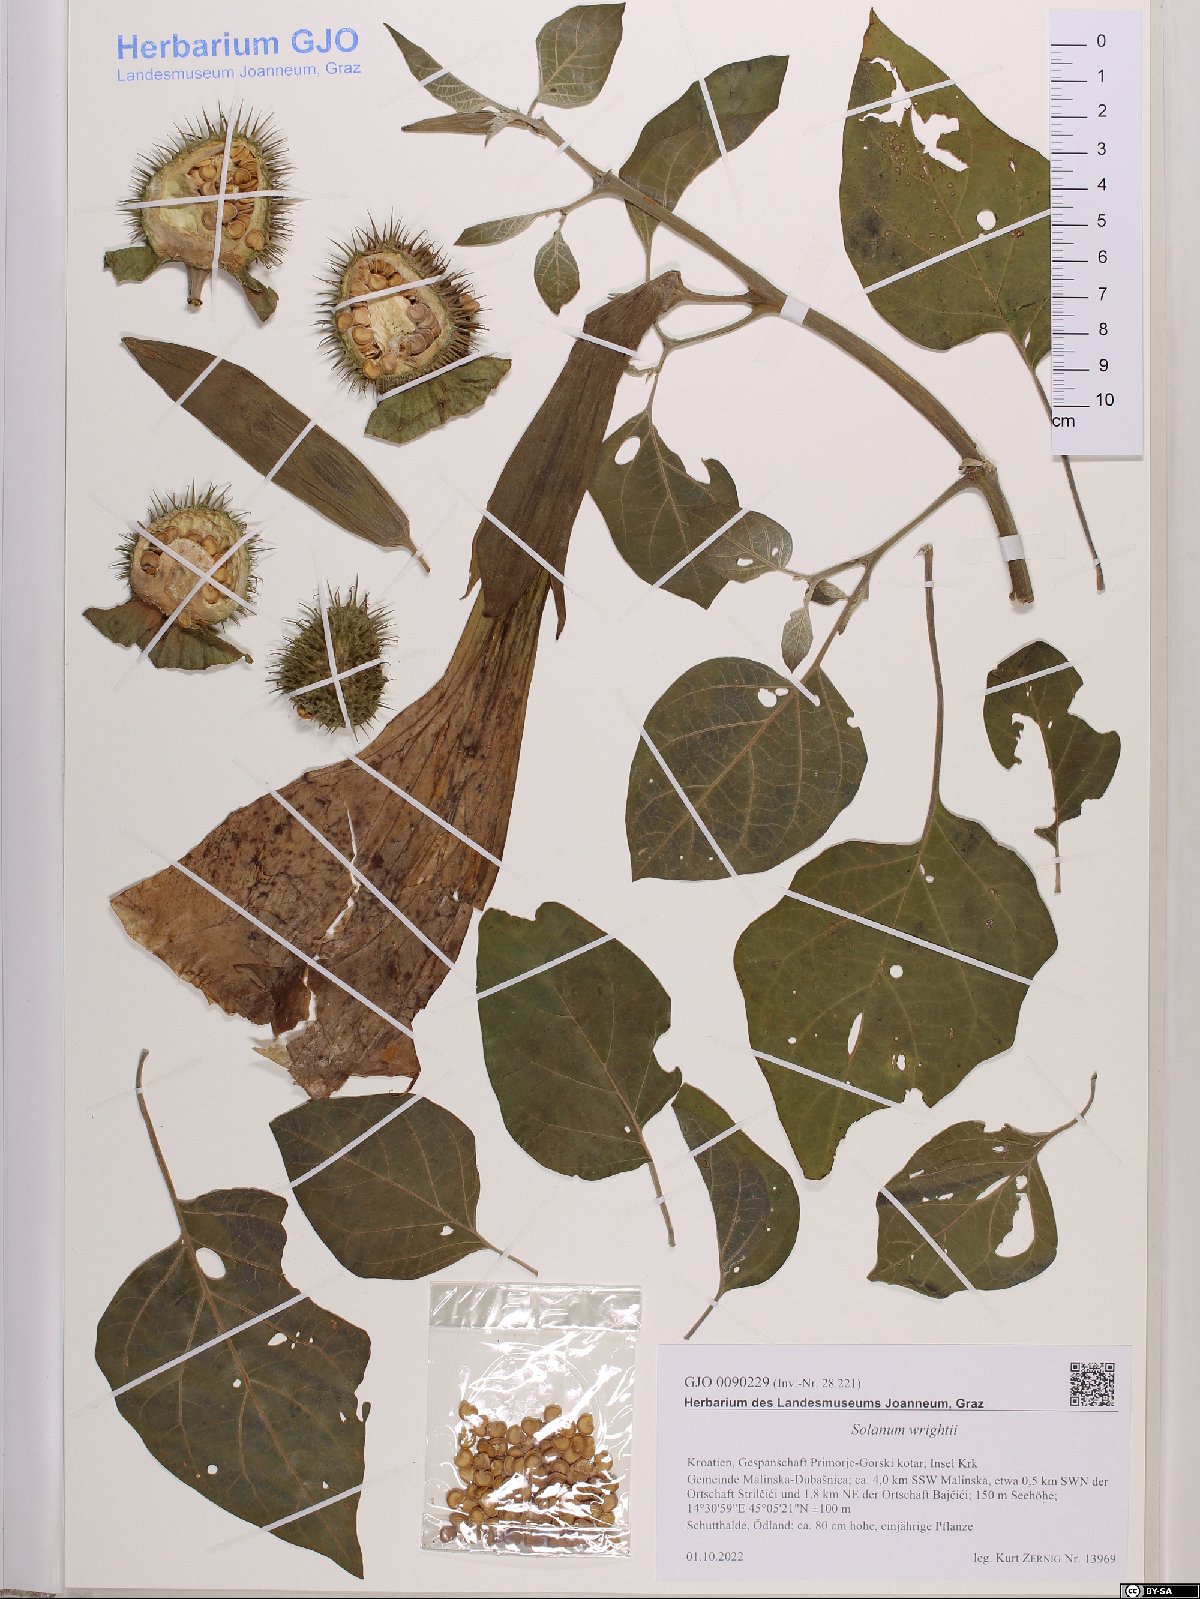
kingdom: Plantae
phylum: Tracheophyta
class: Magnoliopsida
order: Solanales
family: Solanaceae
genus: Solanum
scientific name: Solanum wrightii
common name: Brazilian potato-tree
